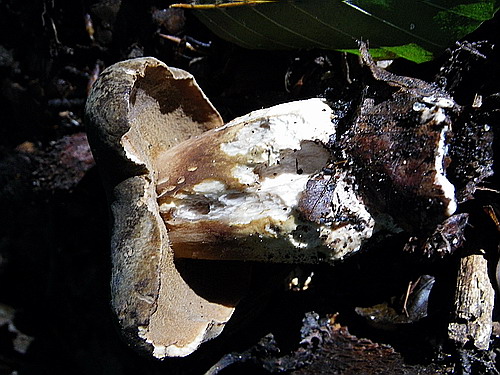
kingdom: Fungi
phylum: Basidiomycota
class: Agaricomycetes
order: Boletales
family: Boletaceae
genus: Porphyrellus
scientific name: Porphyrellus porphyrosporus
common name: sodrørhat
